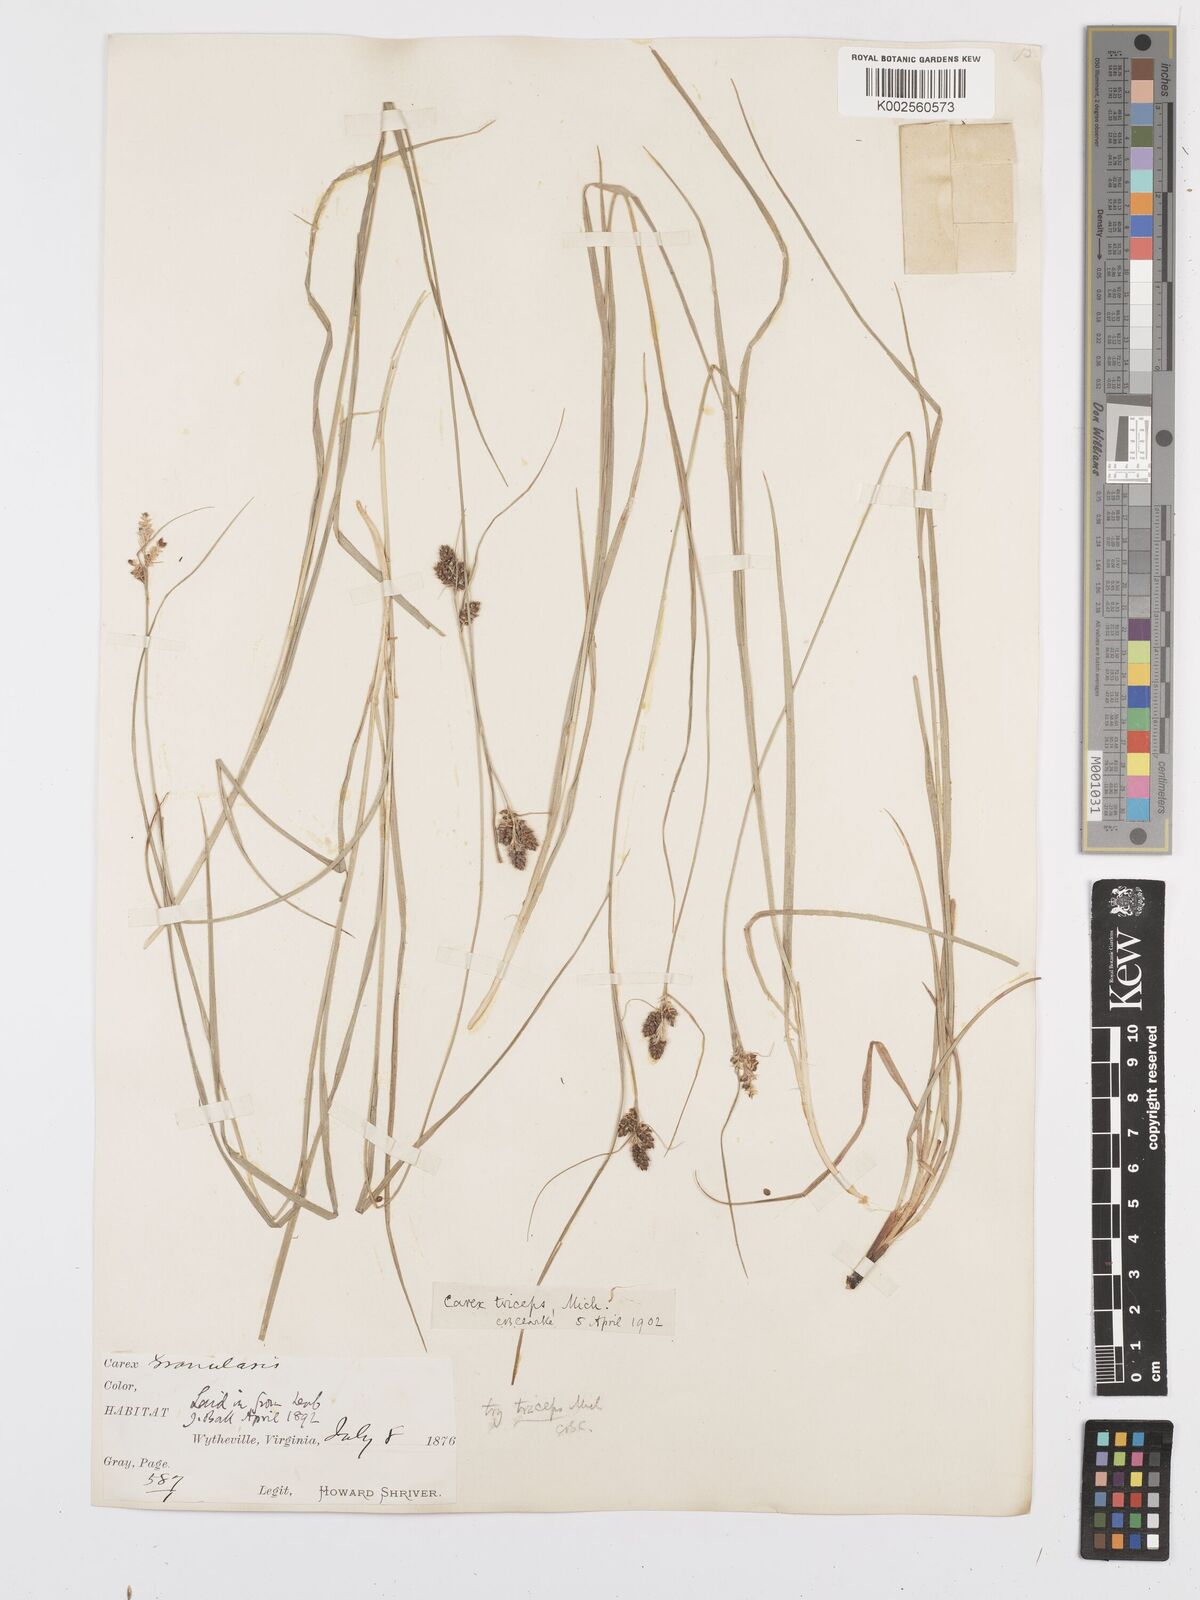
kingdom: Plantae
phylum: Tracheophyta
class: Liliopsida
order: Poales
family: Cyperaceae
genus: Carex
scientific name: Carex complanata
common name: Hirsute sedge
